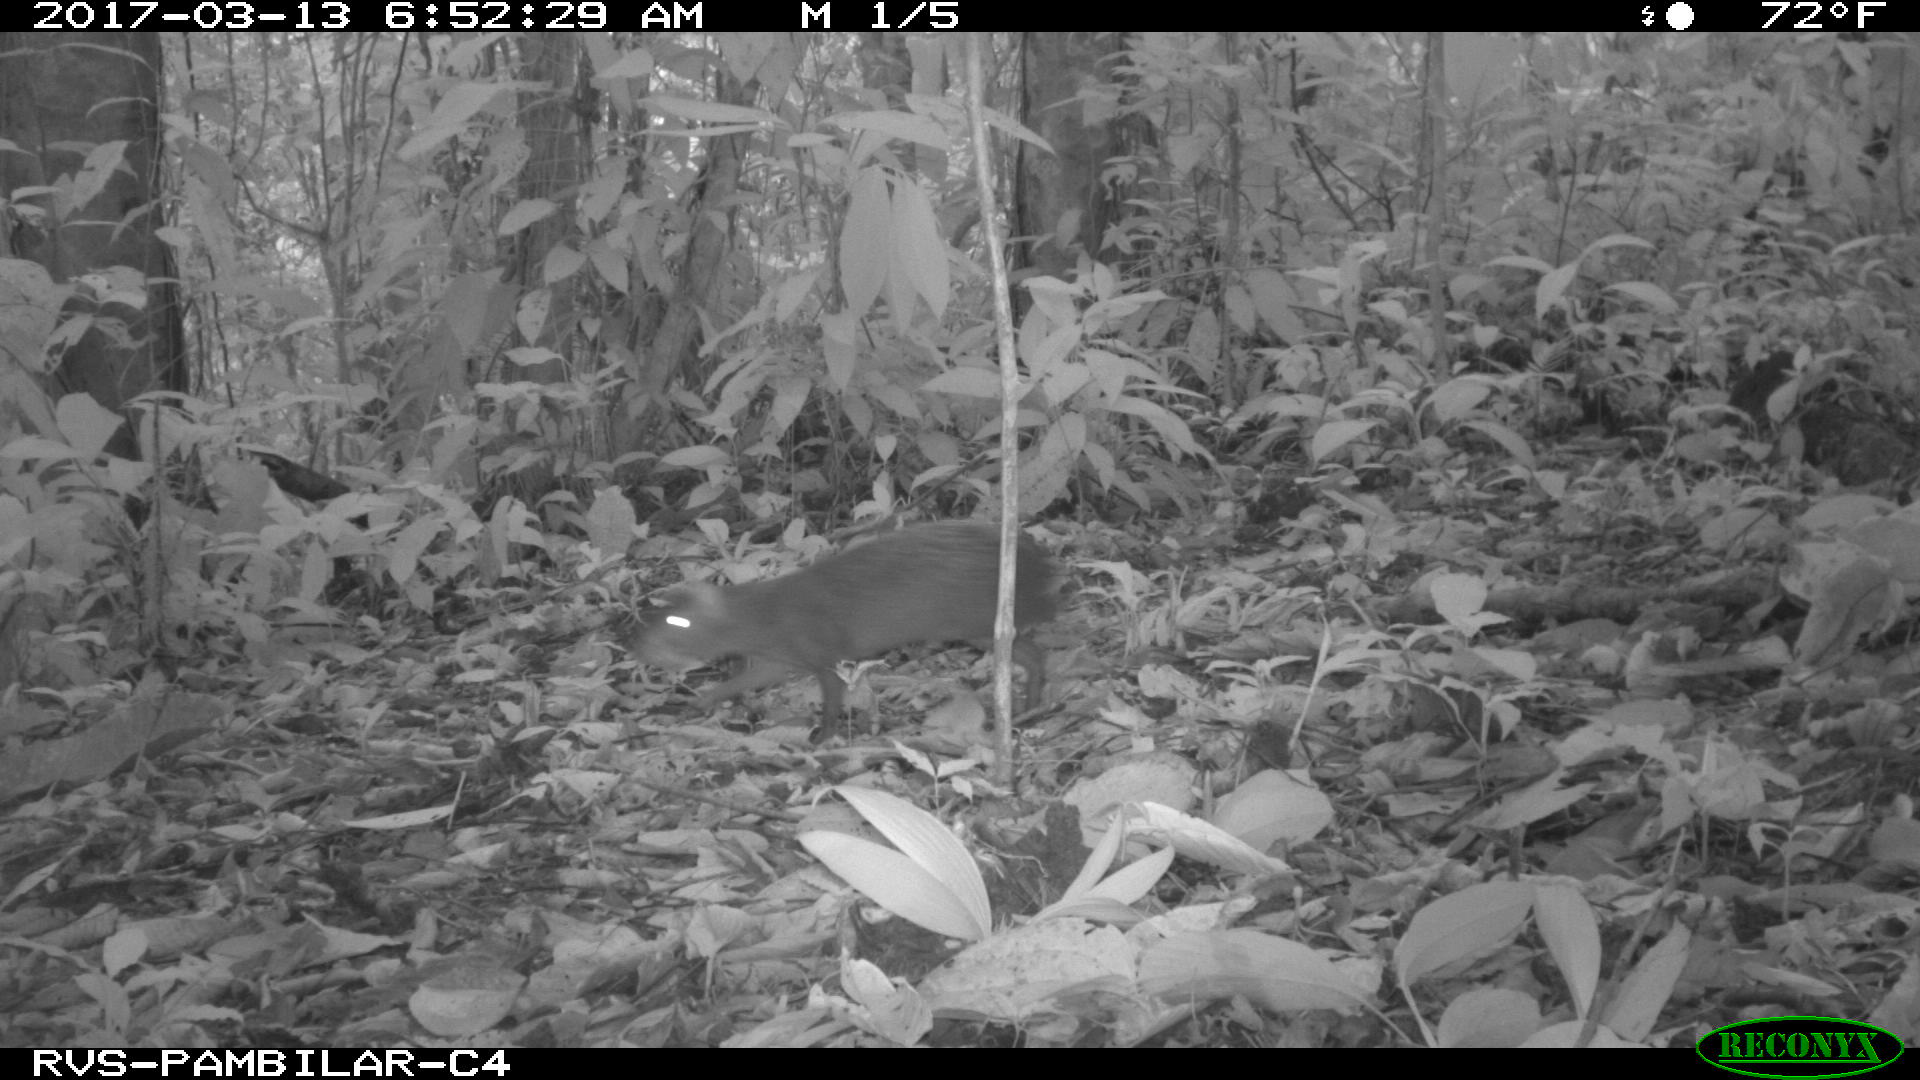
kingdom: Animalia
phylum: Chordata
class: Mammalia
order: Rodentia
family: Dasyproctidae
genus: Dasyprocta
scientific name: Dasyprocta punctata
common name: Central american agouti
